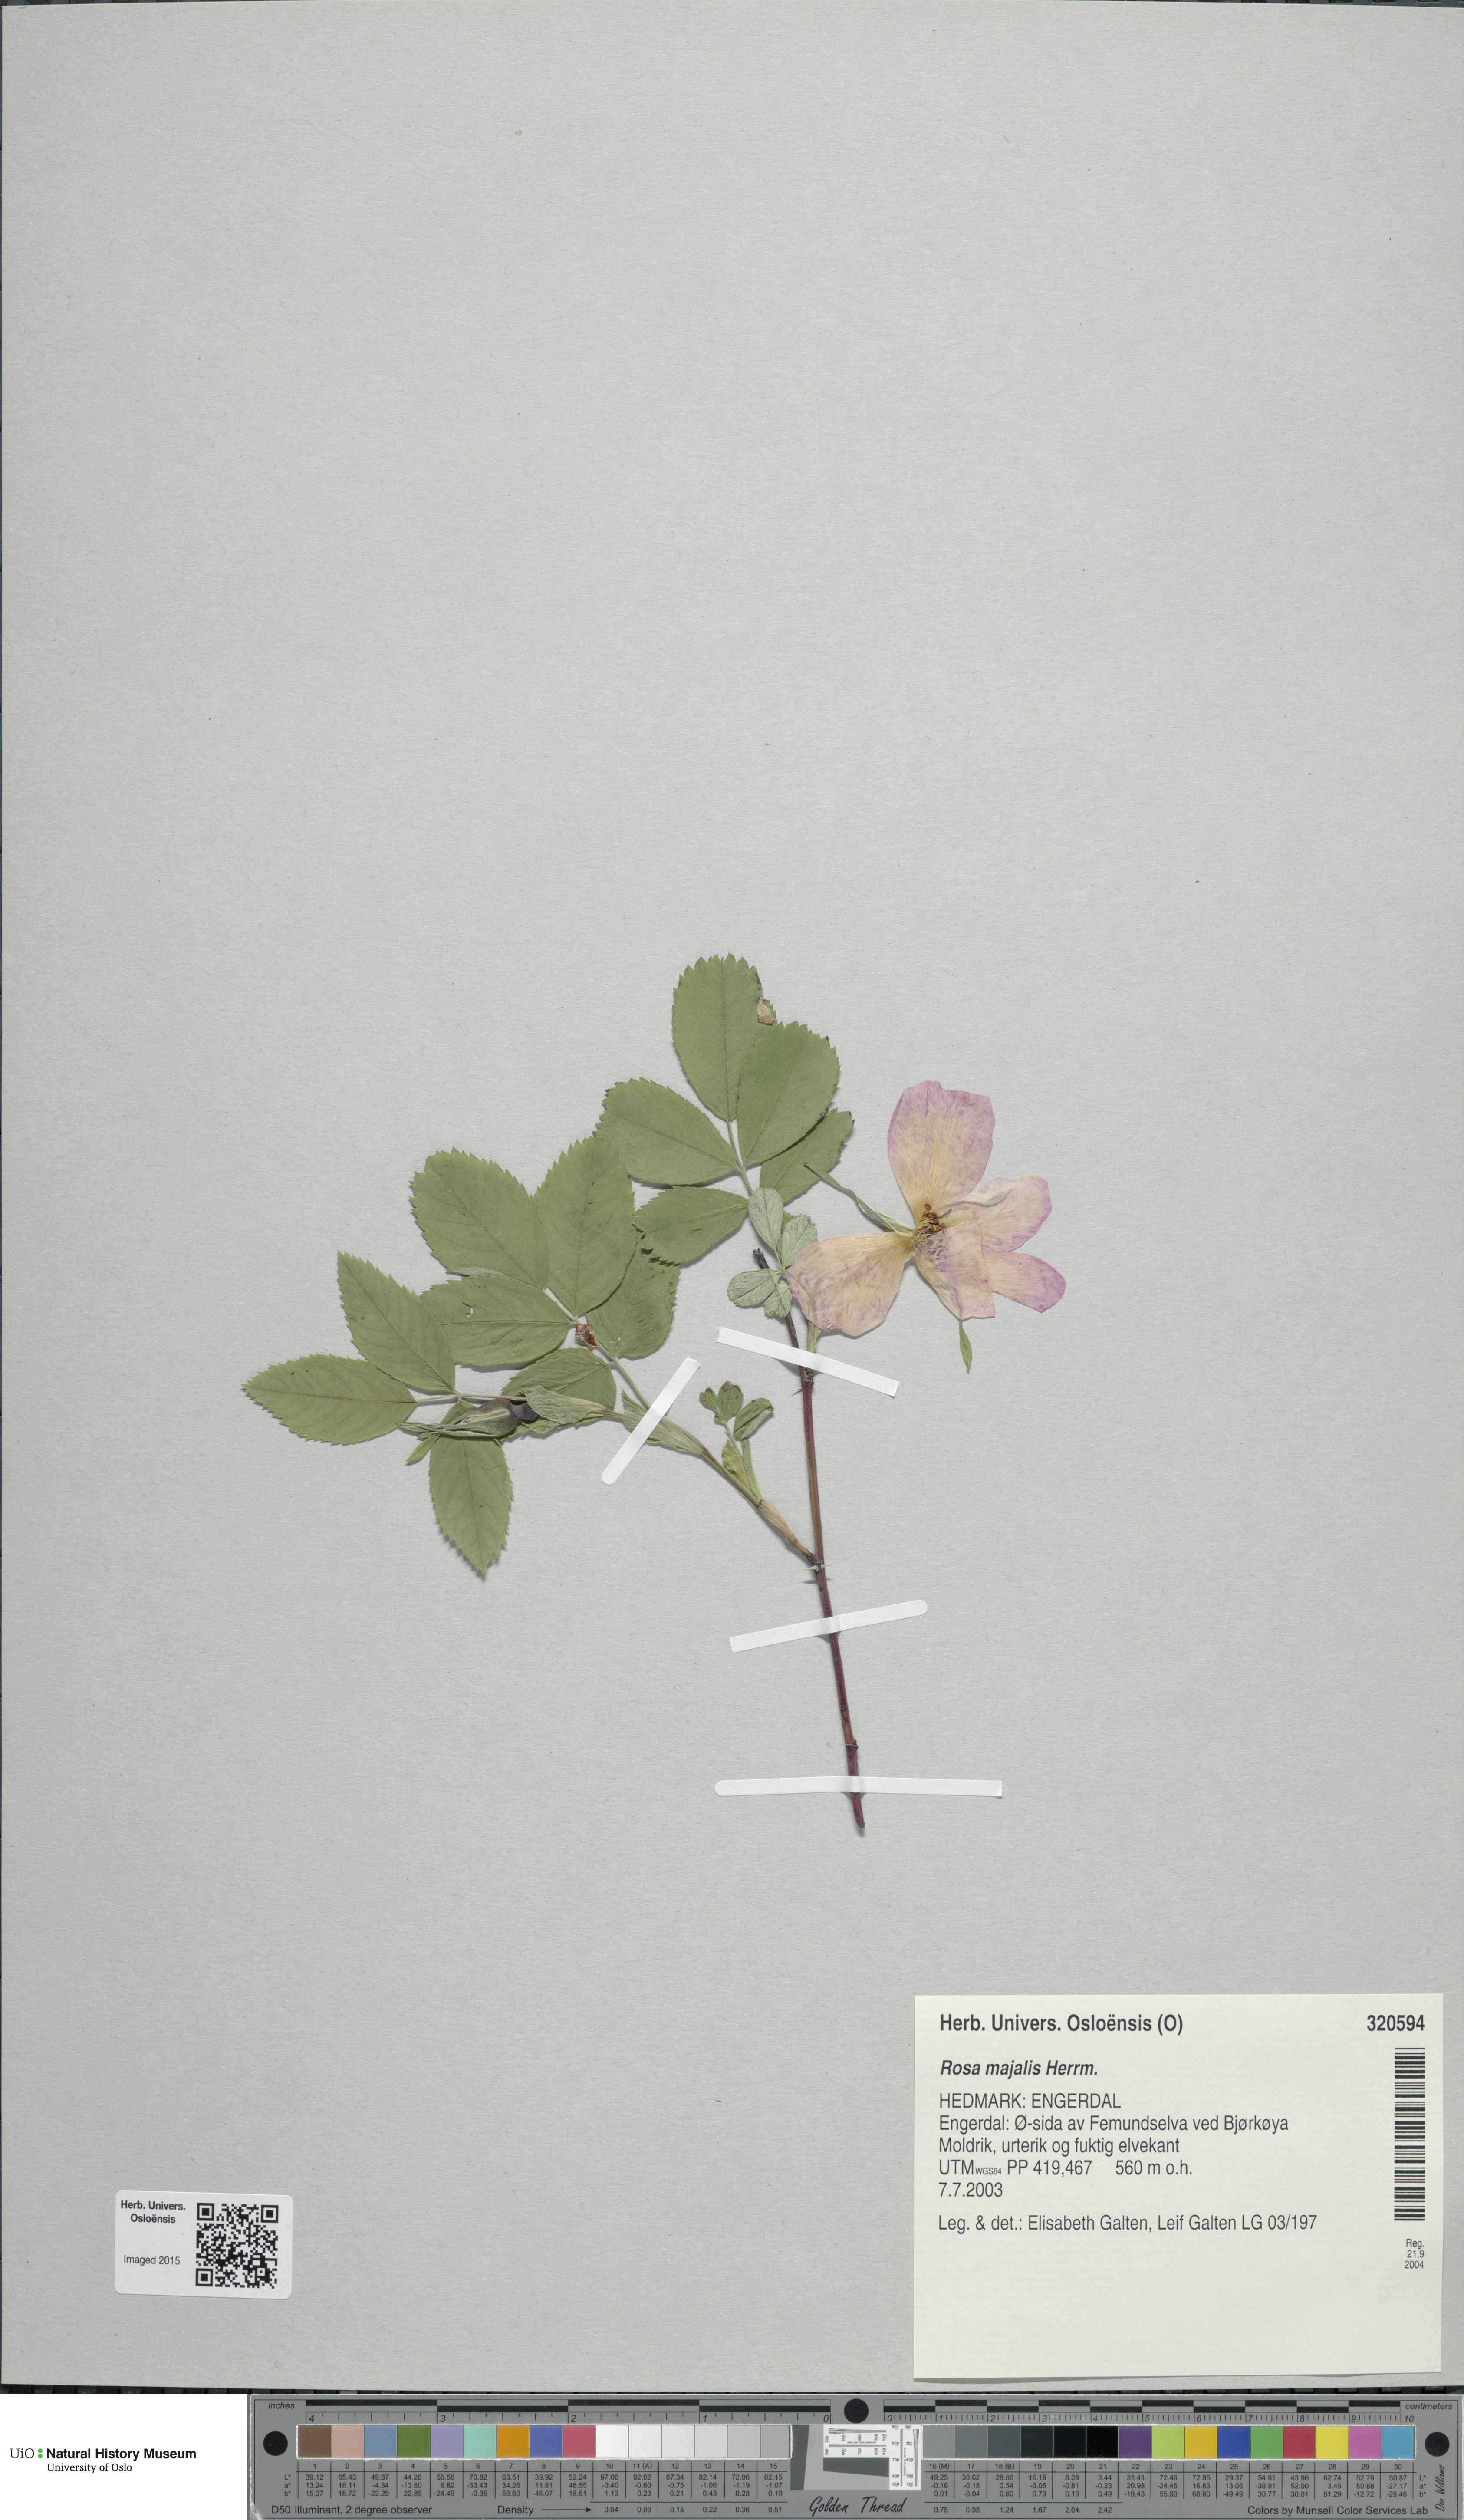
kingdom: Plantae
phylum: Tracheophyta
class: Magnoliopsida
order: Rosales
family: Rosaceae
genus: Rosa
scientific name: Rosa majalis
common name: Cinnamon rose
